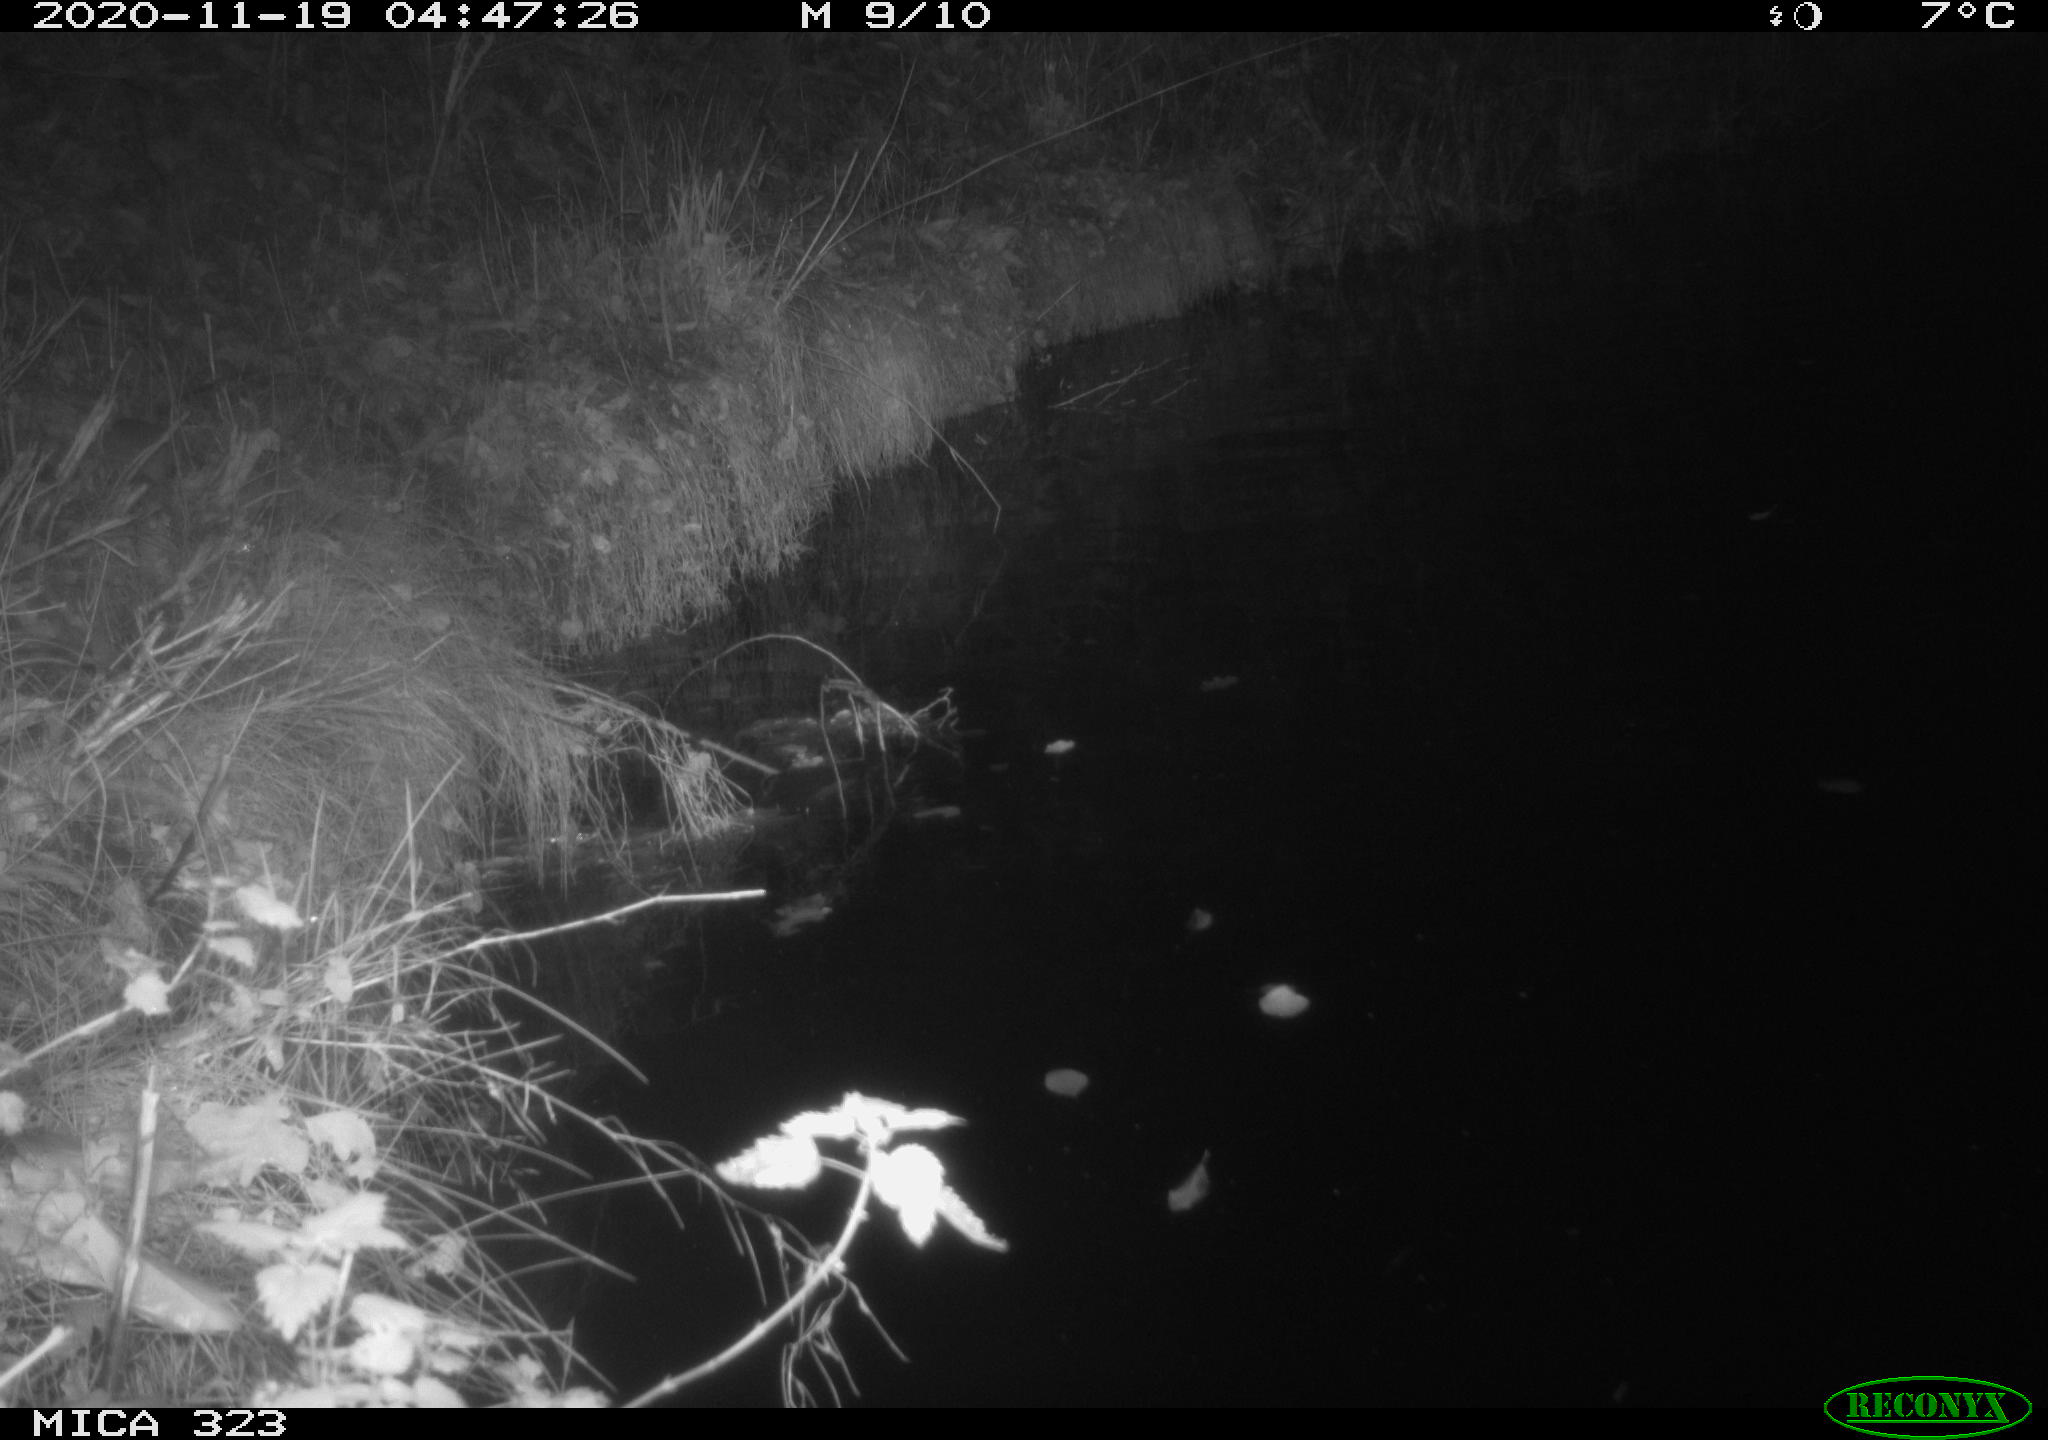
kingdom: Animalia
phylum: Chordata
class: Mammalia
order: Rodentia
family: Muridae
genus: Rattus
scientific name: Rattus norvegicus
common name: Brown rat
